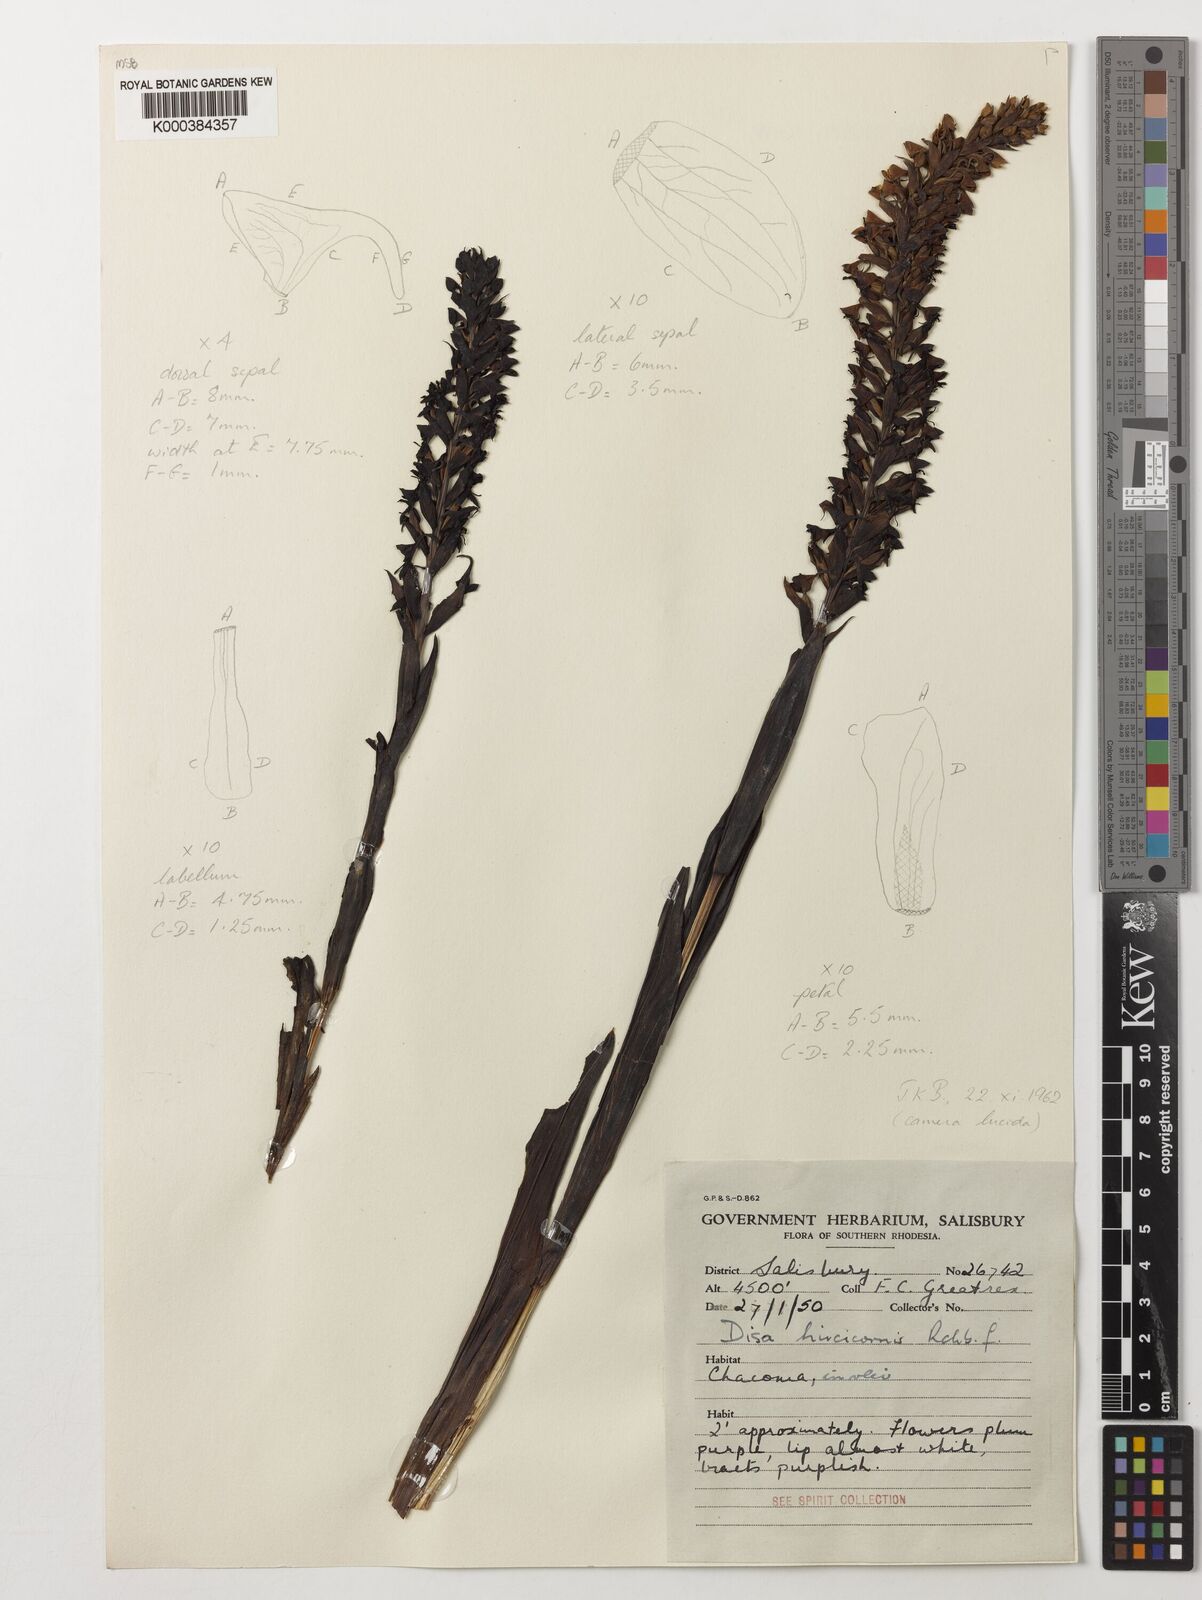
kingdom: Plantae
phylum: Tracheophyta
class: Liliopsida
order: Asparagales
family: Orchidaceae
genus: Disa
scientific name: Disa hircicornis
